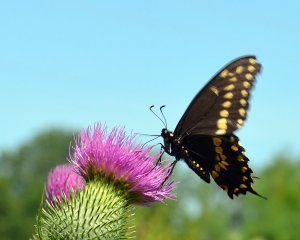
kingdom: Animalia
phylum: Arthropoda
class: Insecta
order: Lepidoptera
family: Papilionidae
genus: Papilio
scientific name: Papilio polyxenes
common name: Black Swallowtail
